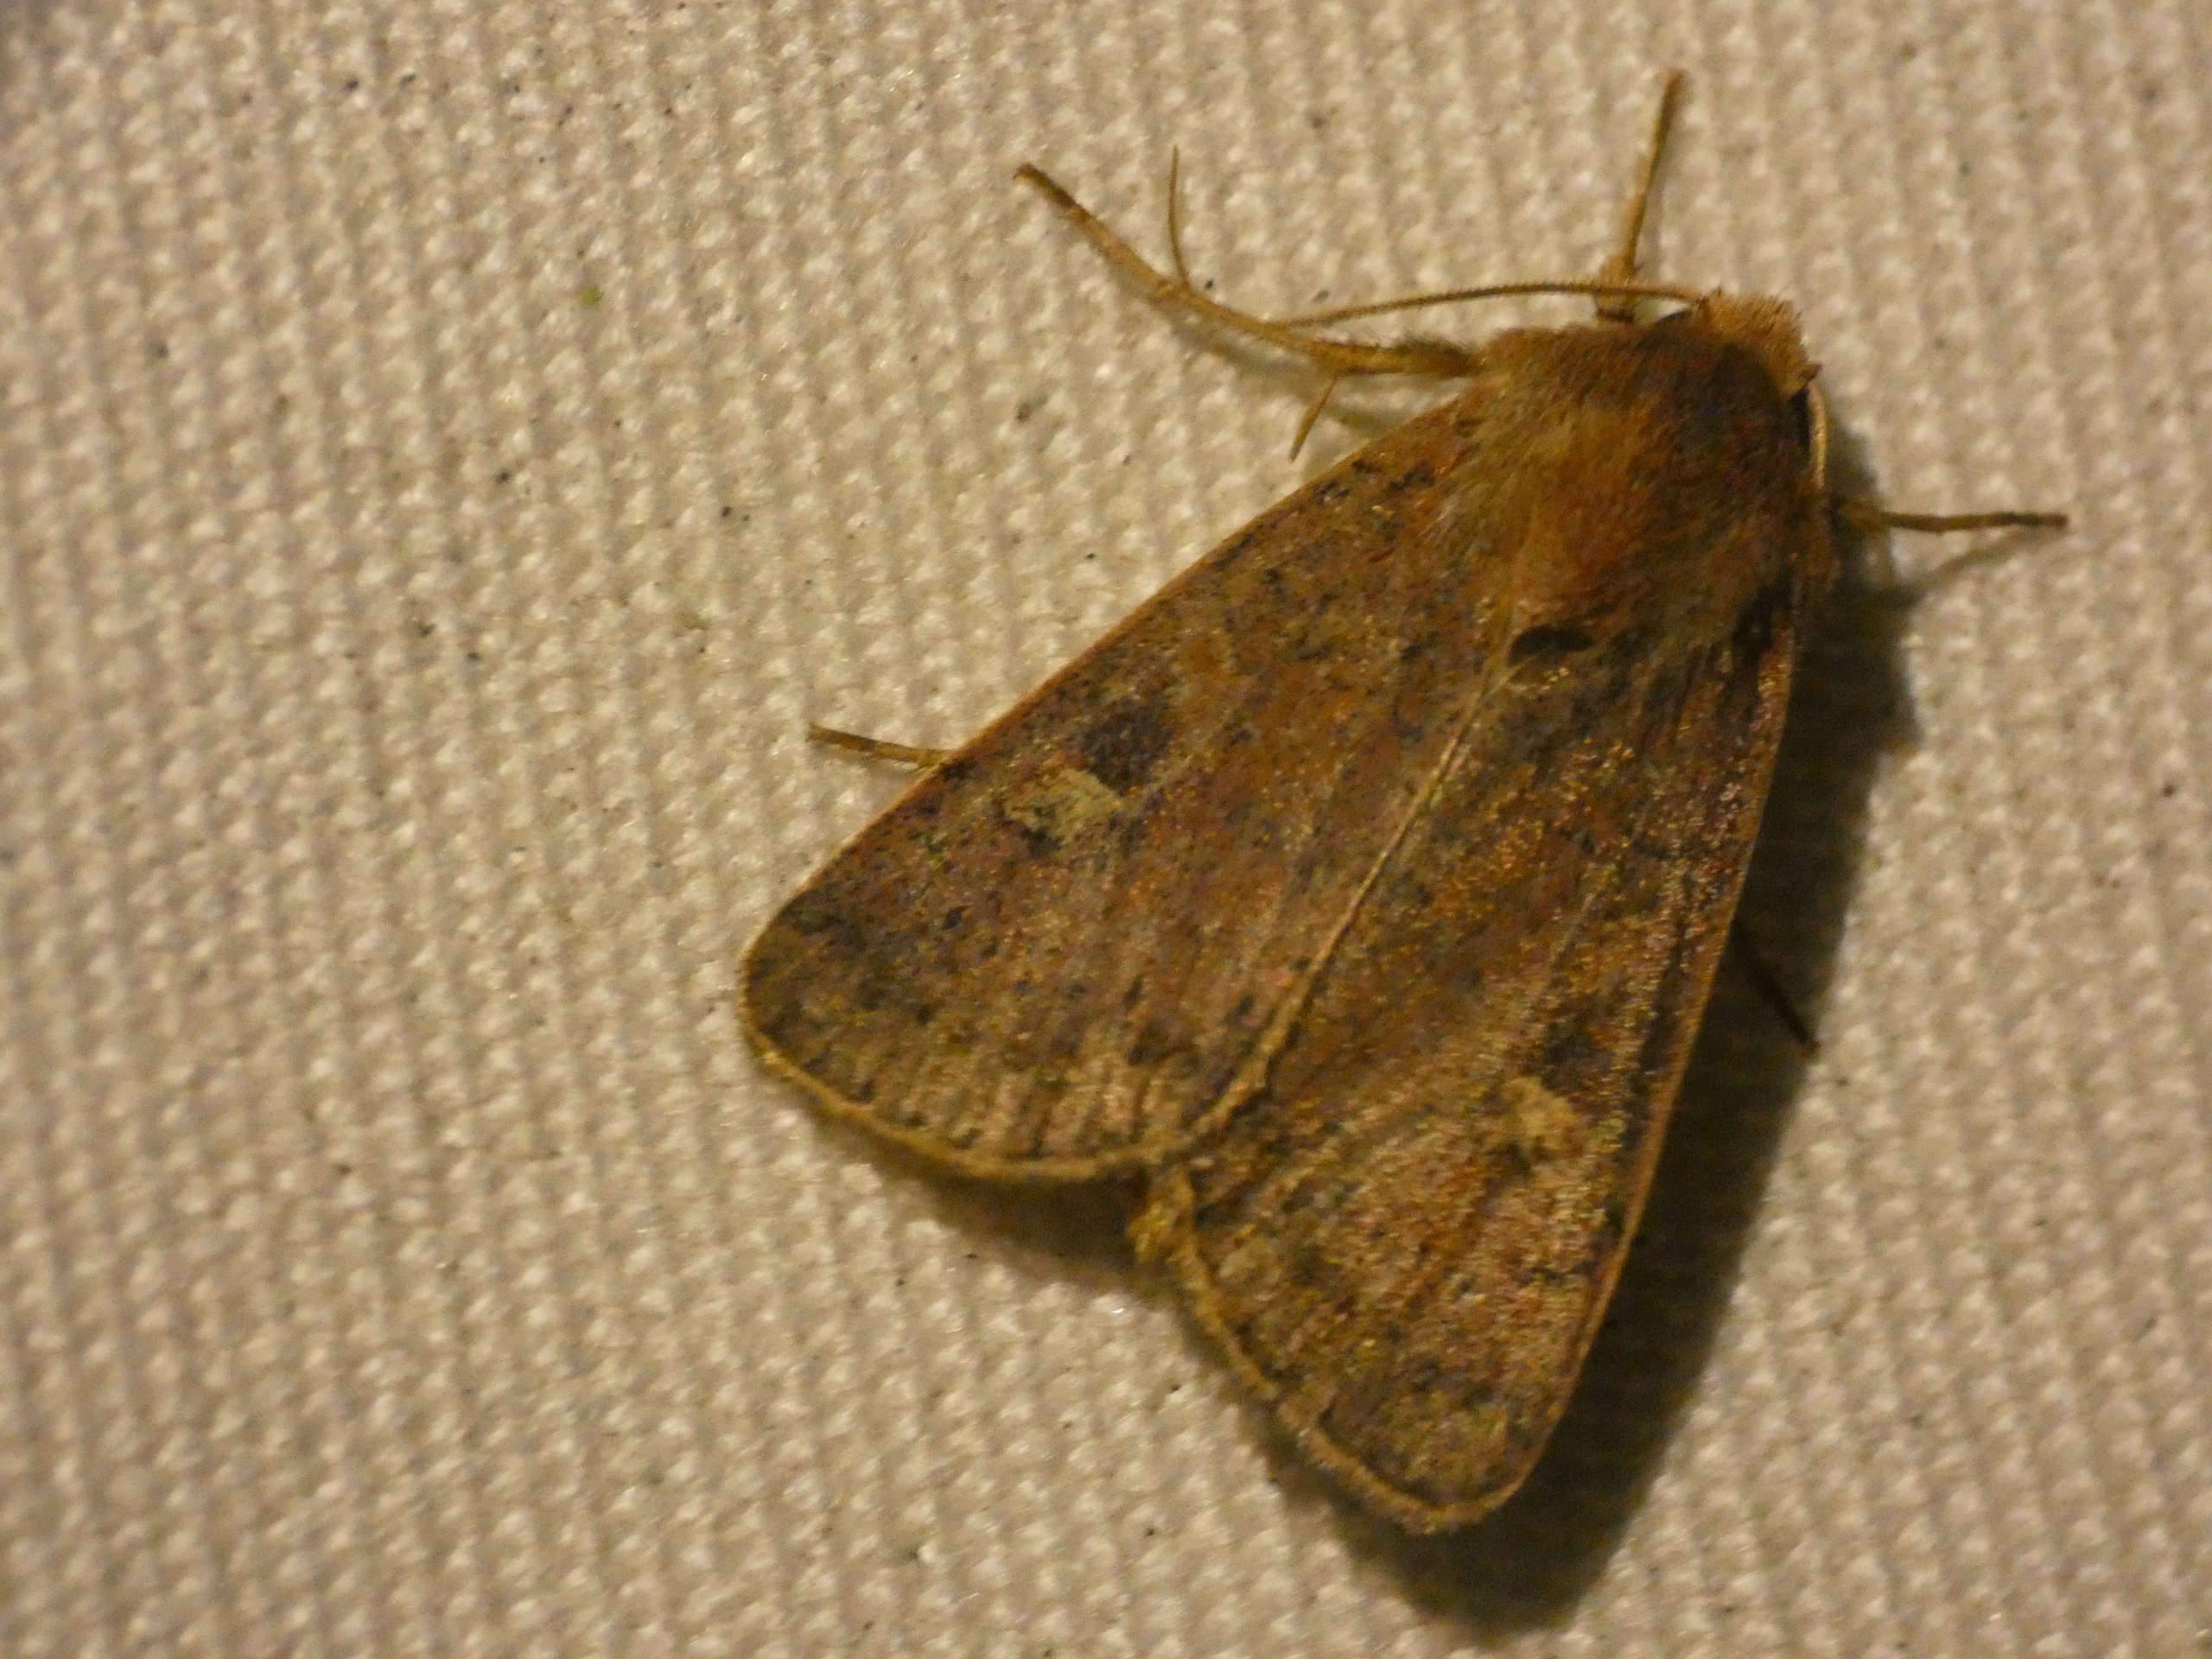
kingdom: Animalia
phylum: Arthropoda
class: Insecta
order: Lepidoptera
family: Noctuidae
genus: Xestia
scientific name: Xestia xanthographa
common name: Gulmærket glansugle
